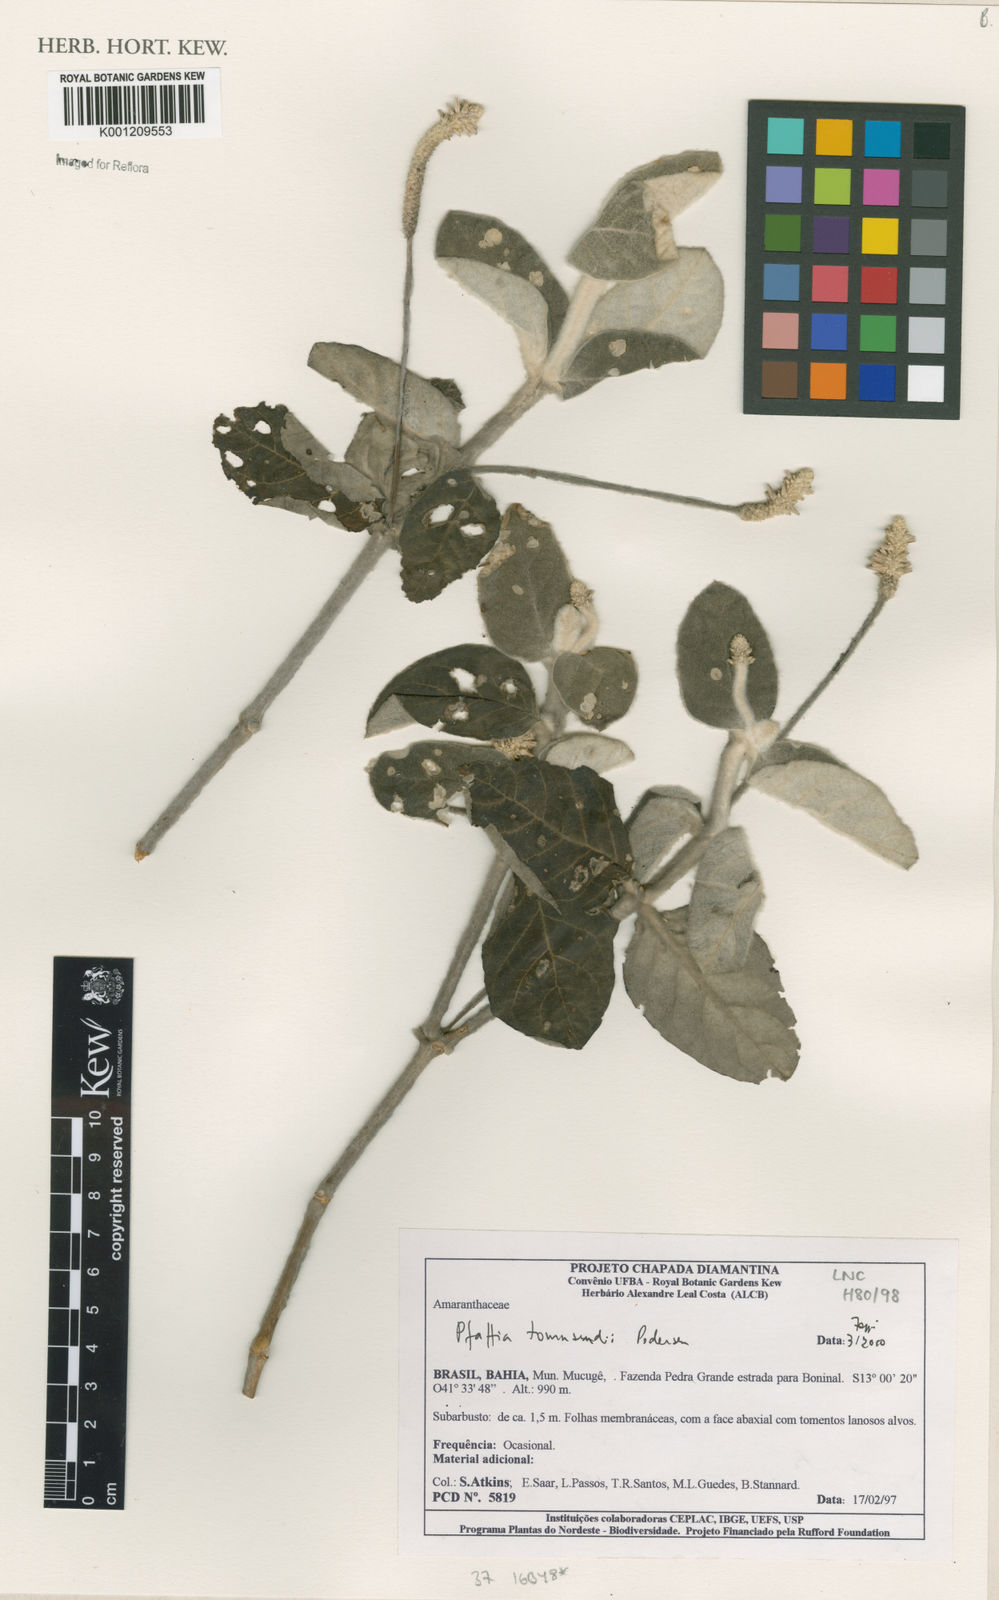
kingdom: Plantae
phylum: Tracheophyta
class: Magnoliopsida
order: Caryophyllales
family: Amaranthaceae
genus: Pfaffia
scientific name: Pfaffia townsendii
